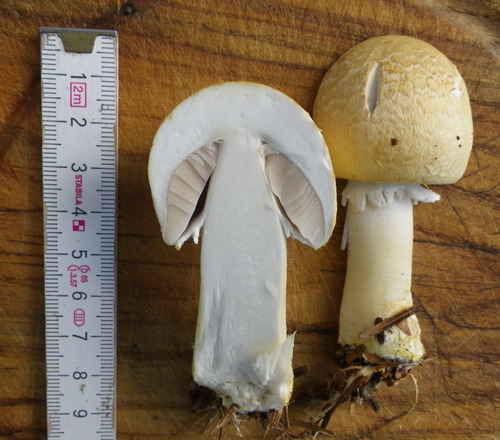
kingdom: Fungi
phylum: Basidiomycota
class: Agaricomycetes
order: Agaricales
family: Agaricaceae
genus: Agaricus
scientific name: Agaricus arvensis
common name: ager-champignon
